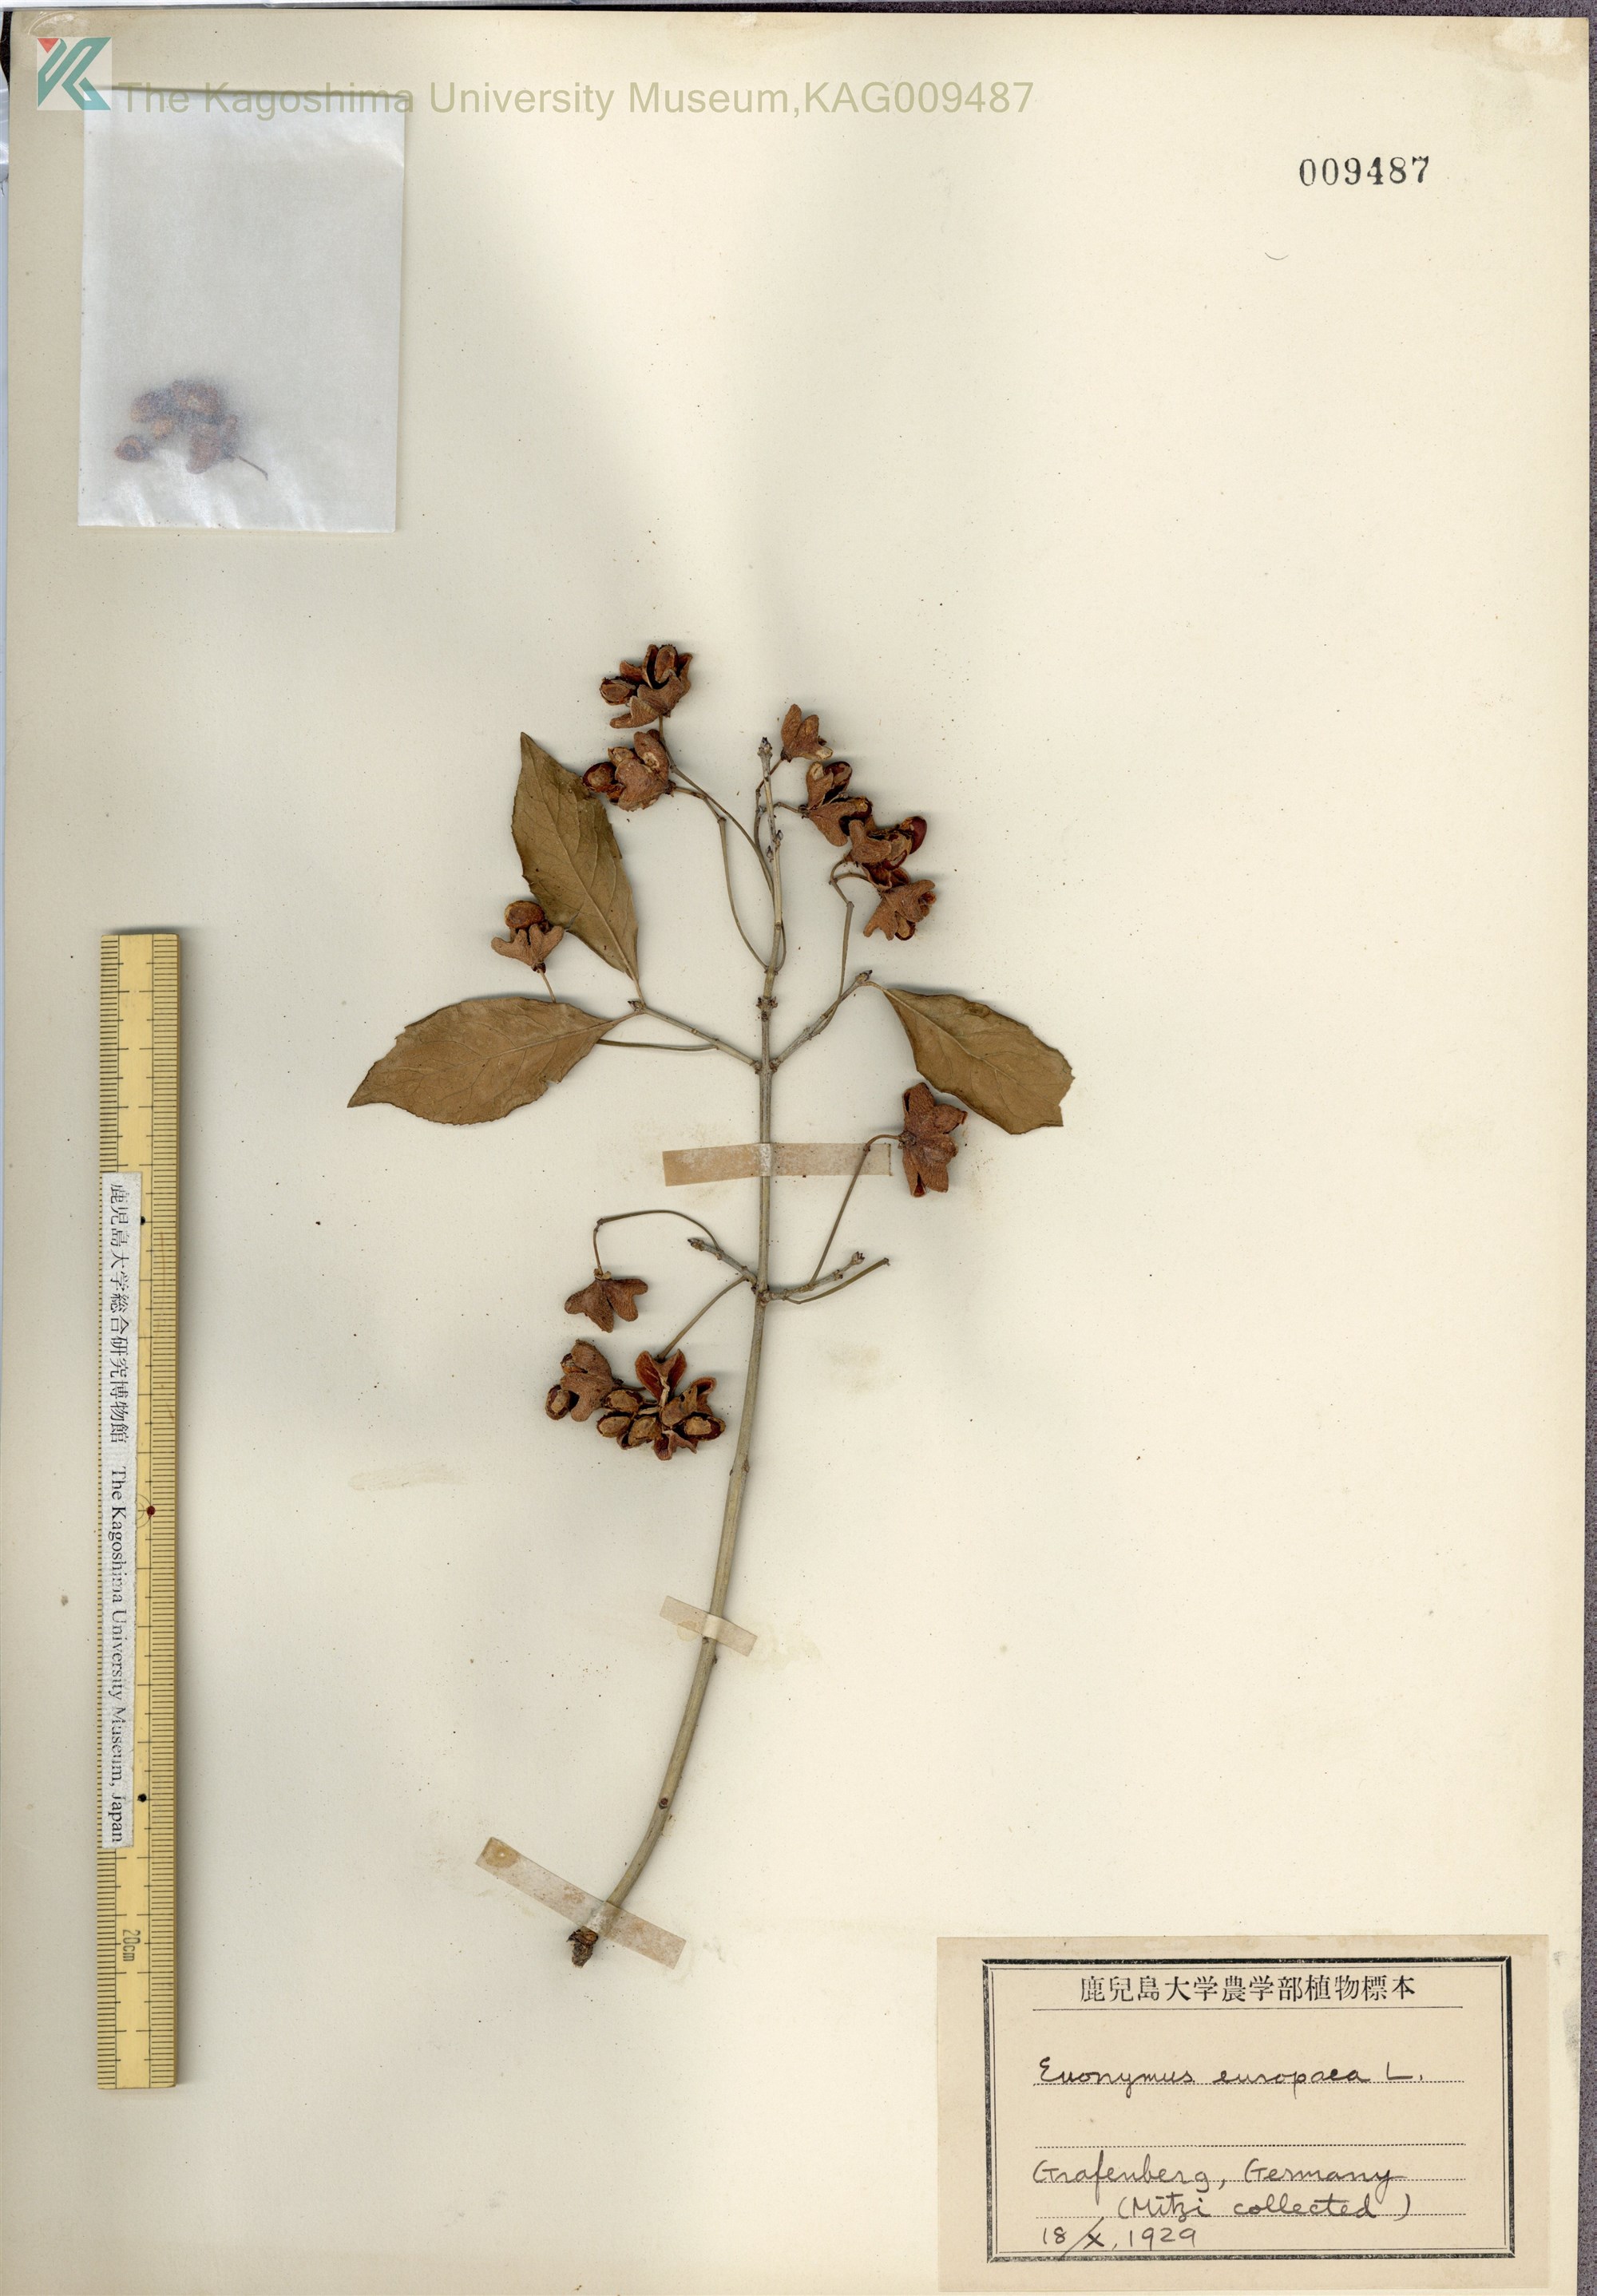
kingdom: Plantae
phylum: Tracheophyta
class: Magnoliopsida
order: Celastrales
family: Celastraceae
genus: Euonymus
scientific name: Euonymus europaeus
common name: Spindle
